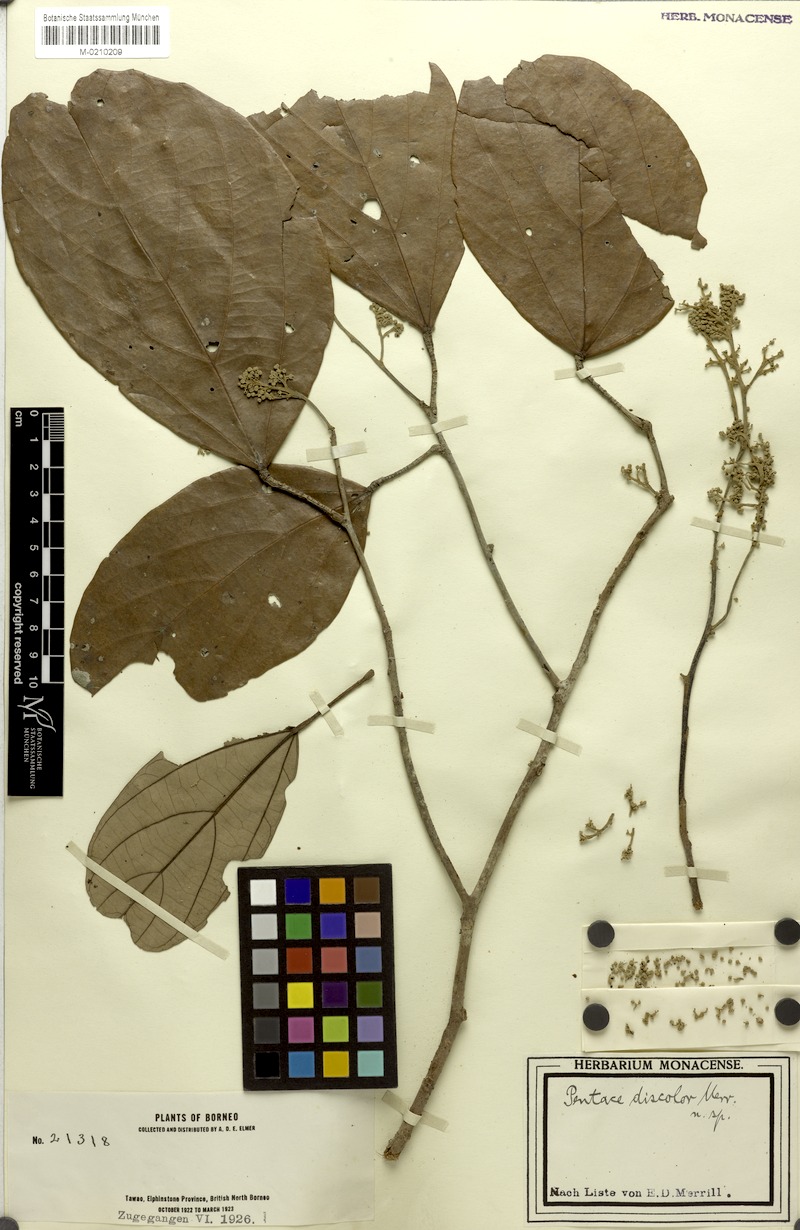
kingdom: Plantae
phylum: Tracheophyta
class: Magnoliopsida
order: Malvales
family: Malvaceae
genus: Pentace
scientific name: Pentace discolor
